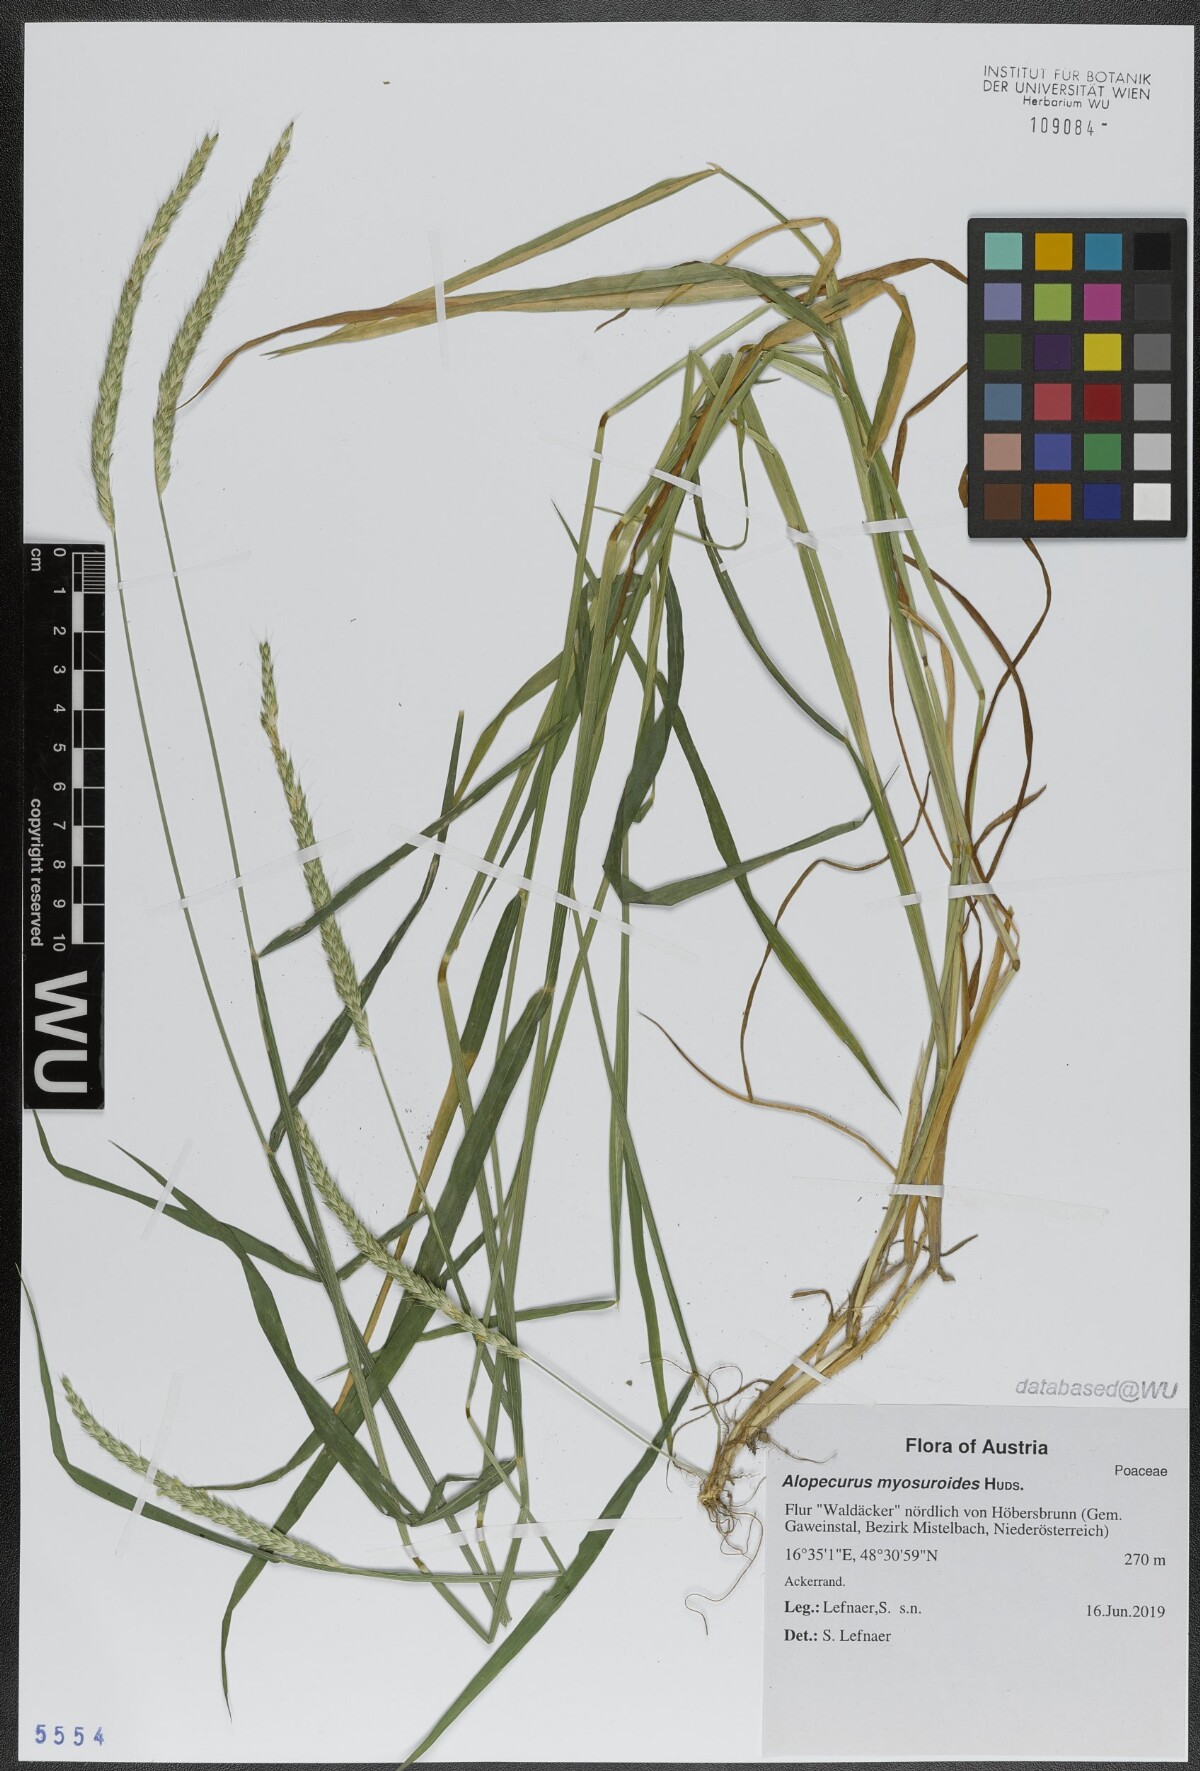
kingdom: Plantae
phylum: Tracheophyta
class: Liliopsida
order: Poales
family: Poaceae
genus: Alopecurus
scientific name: Alopecurus myosuroides
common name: Black-grass
